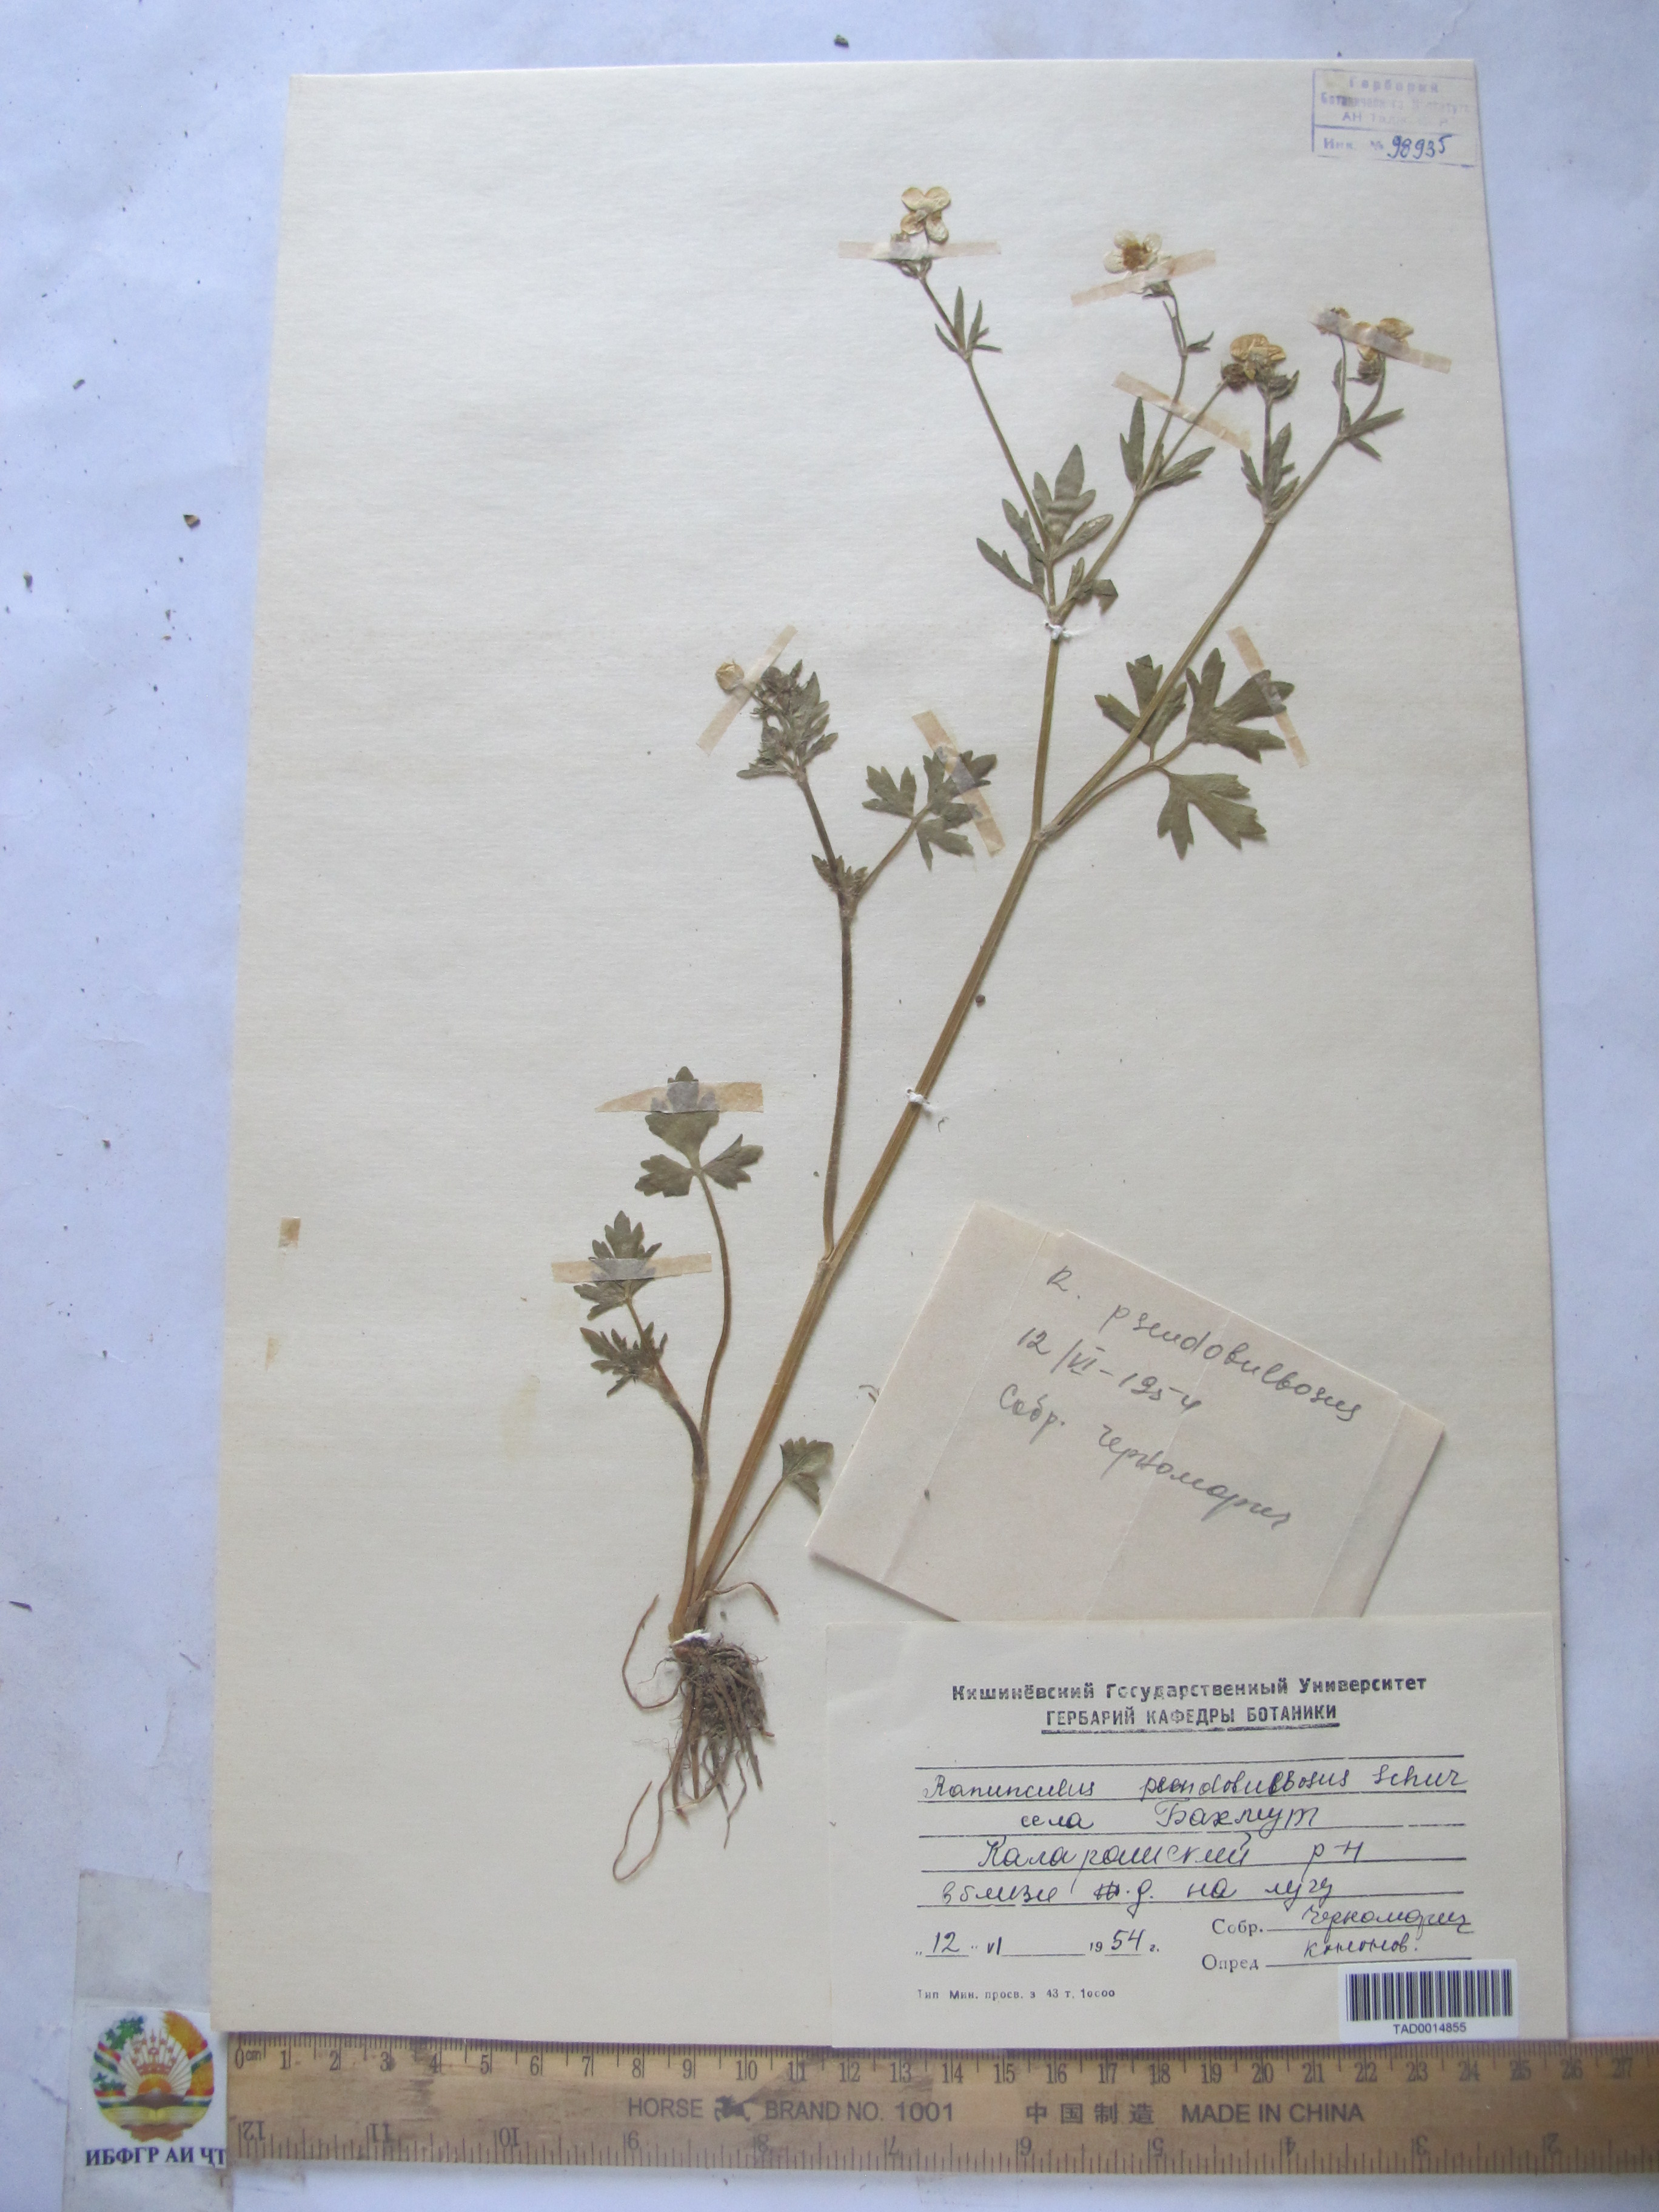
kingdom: Plantae
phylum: Tracheophyta
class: Magnoliopsida
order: Ranunculales
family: Ranunculaceae
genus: Ranunculus
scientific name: Ranunculus sardous
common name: Hairy buttercup
